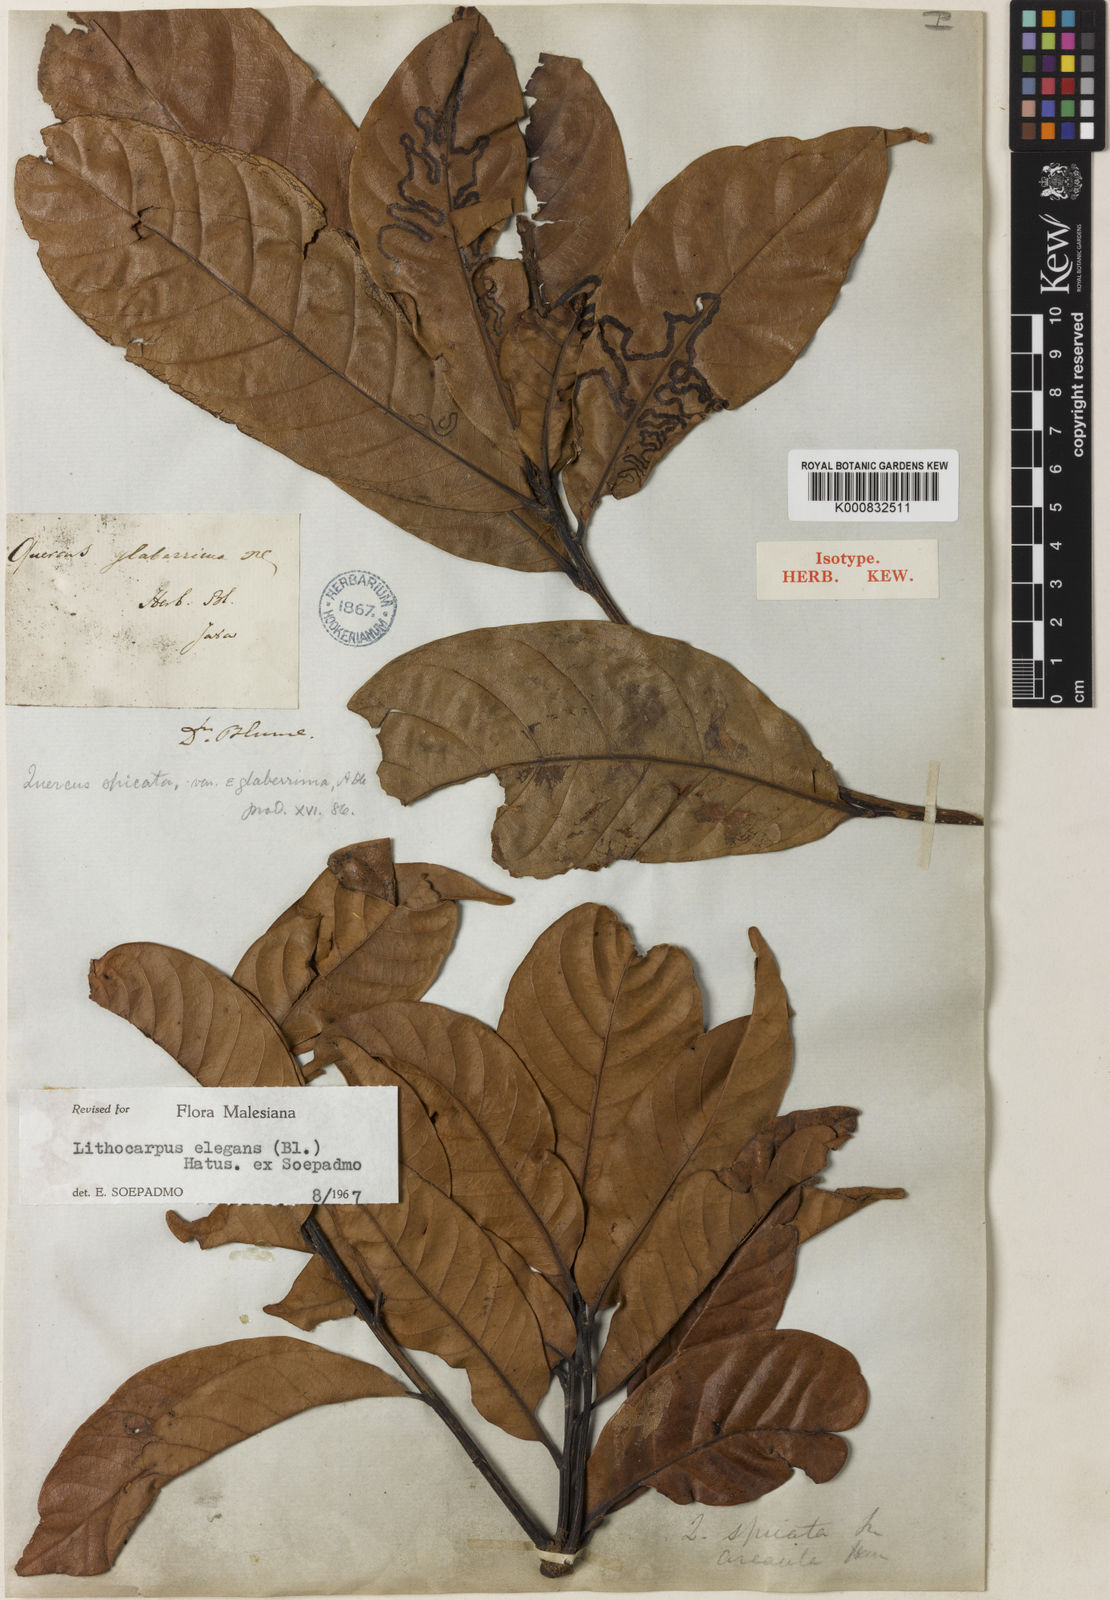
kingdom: Plantae
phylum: Tracheophyta
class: Magnoliopsida
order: Fagales
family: Fagaceae
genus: Lithocarpus
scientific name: Lithocarpus elegans
